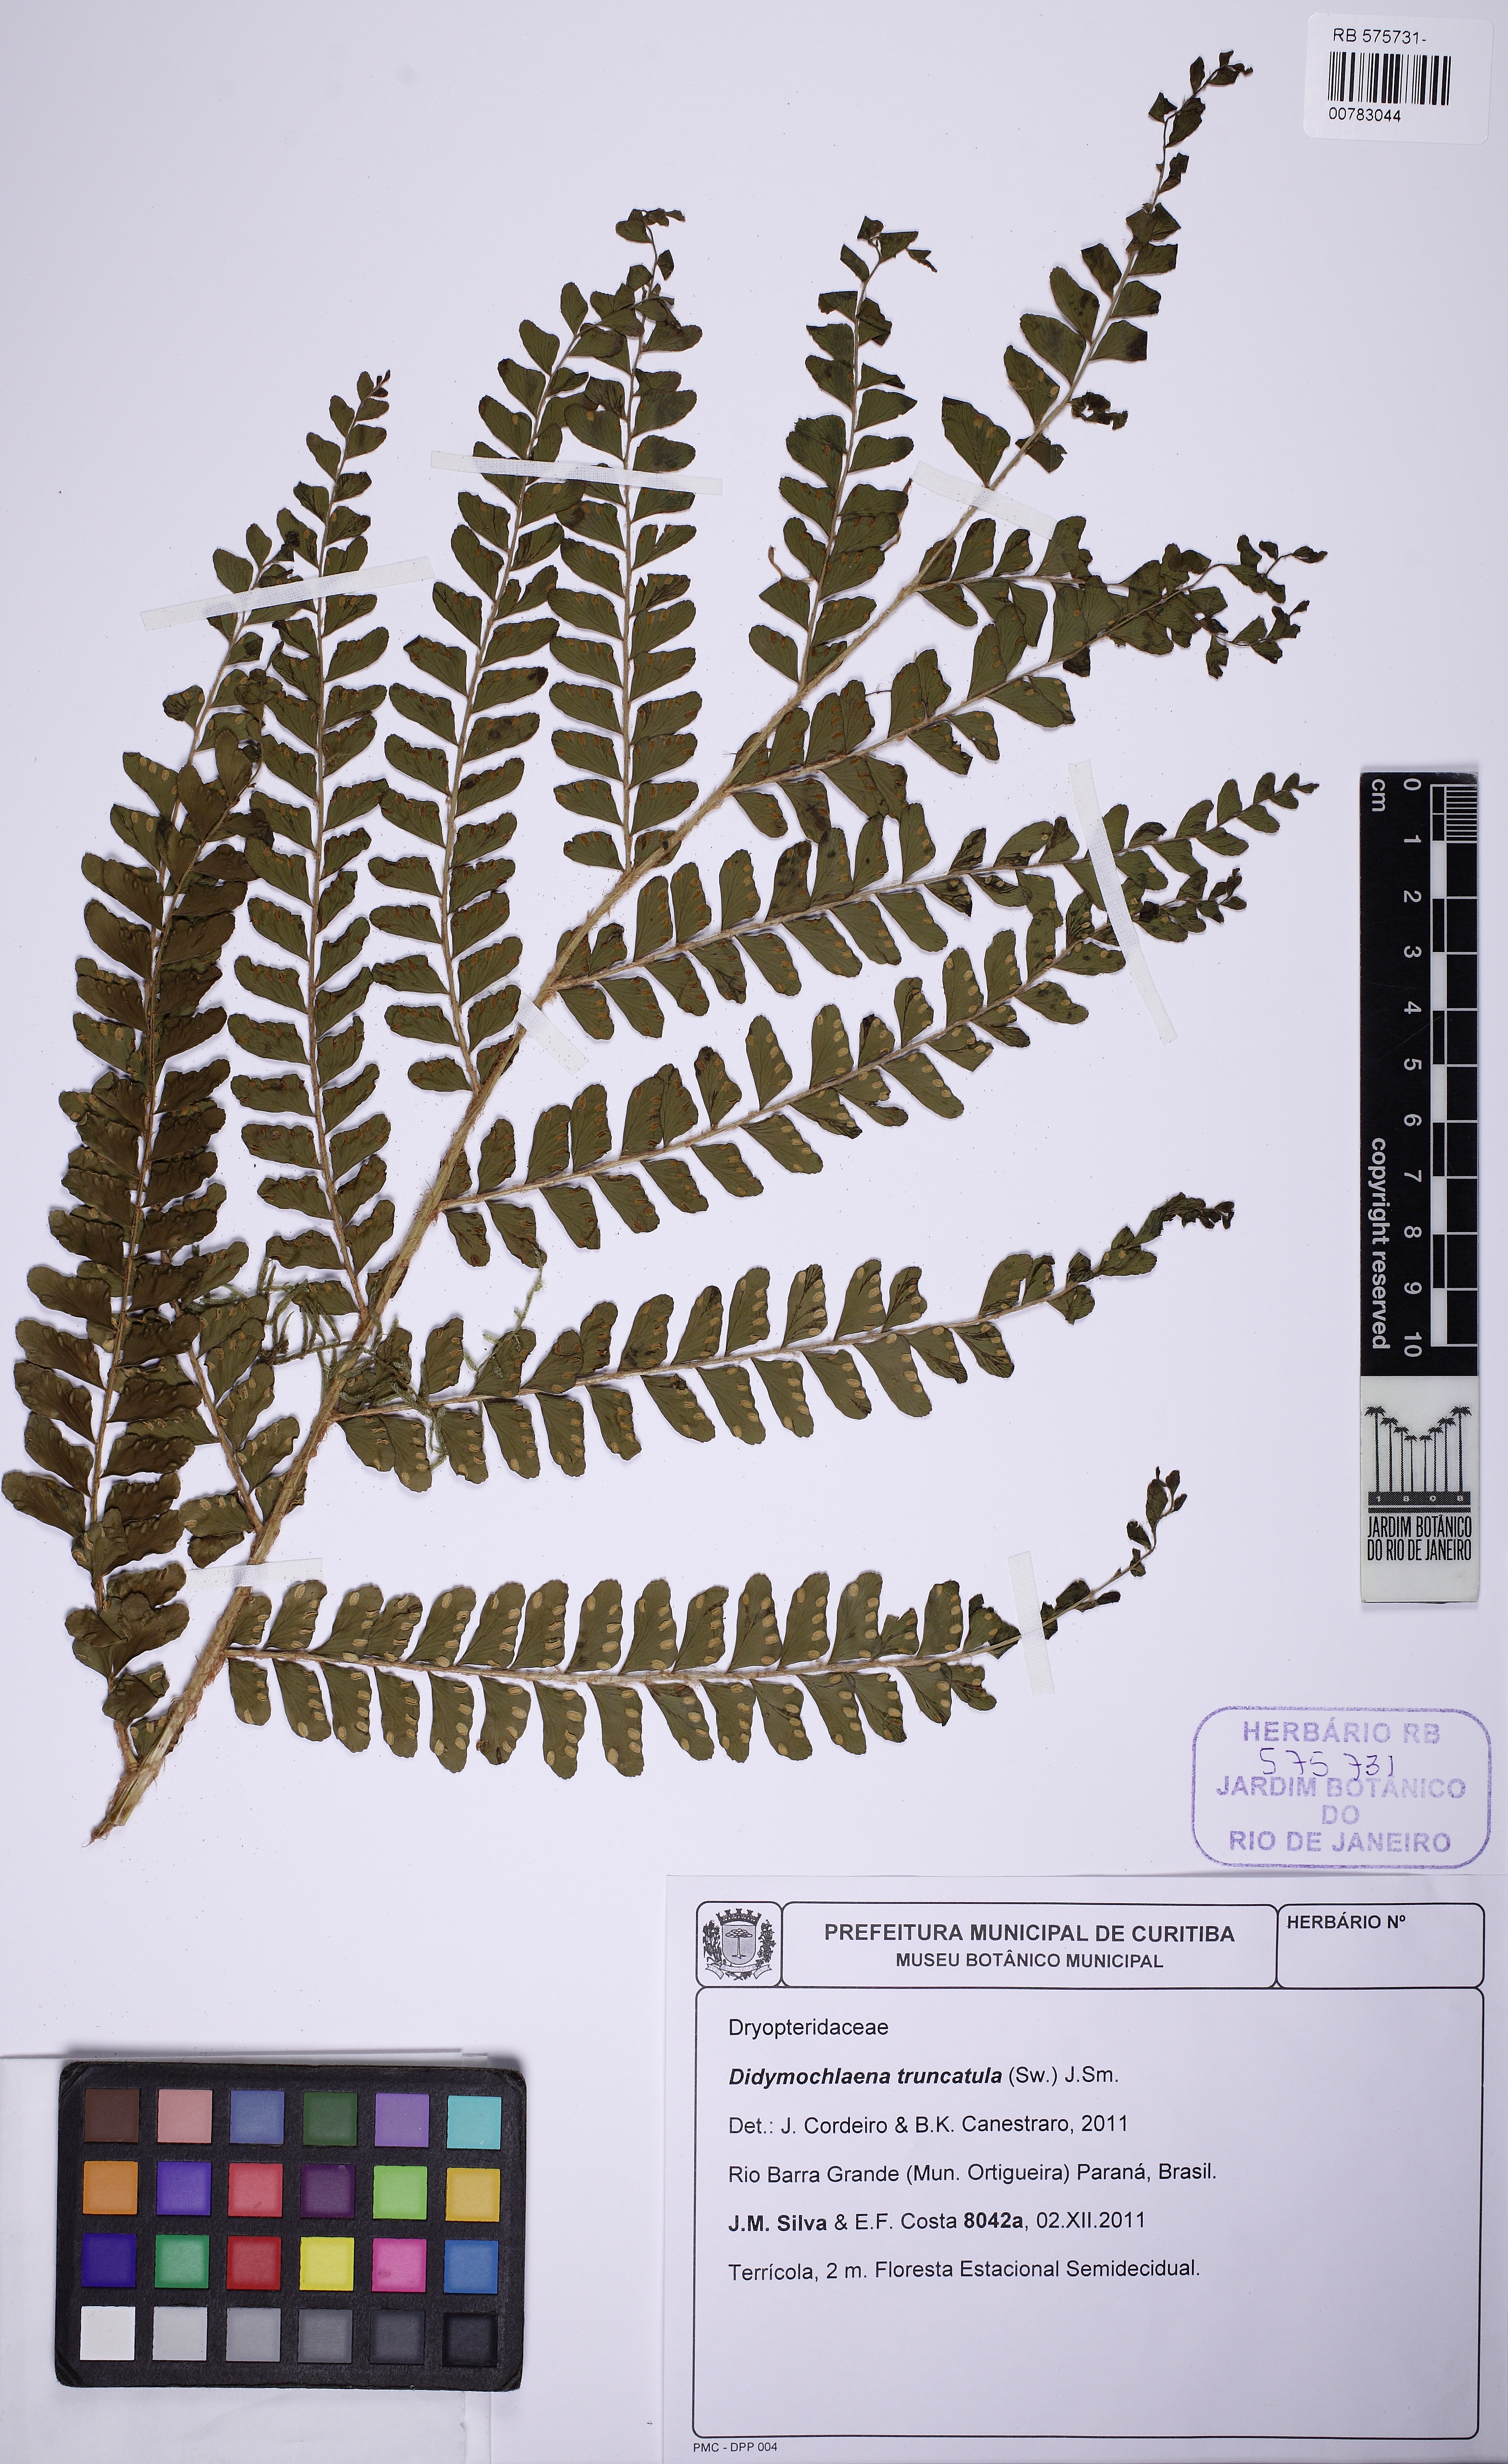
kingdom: Plantae
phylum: Tracheophyta
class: Polypodiopsida
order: Polypodiales
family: Didymochlaenaceae
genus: Didymochlaena
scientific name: Didymochlaena truncatula
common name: Mahogany fern
